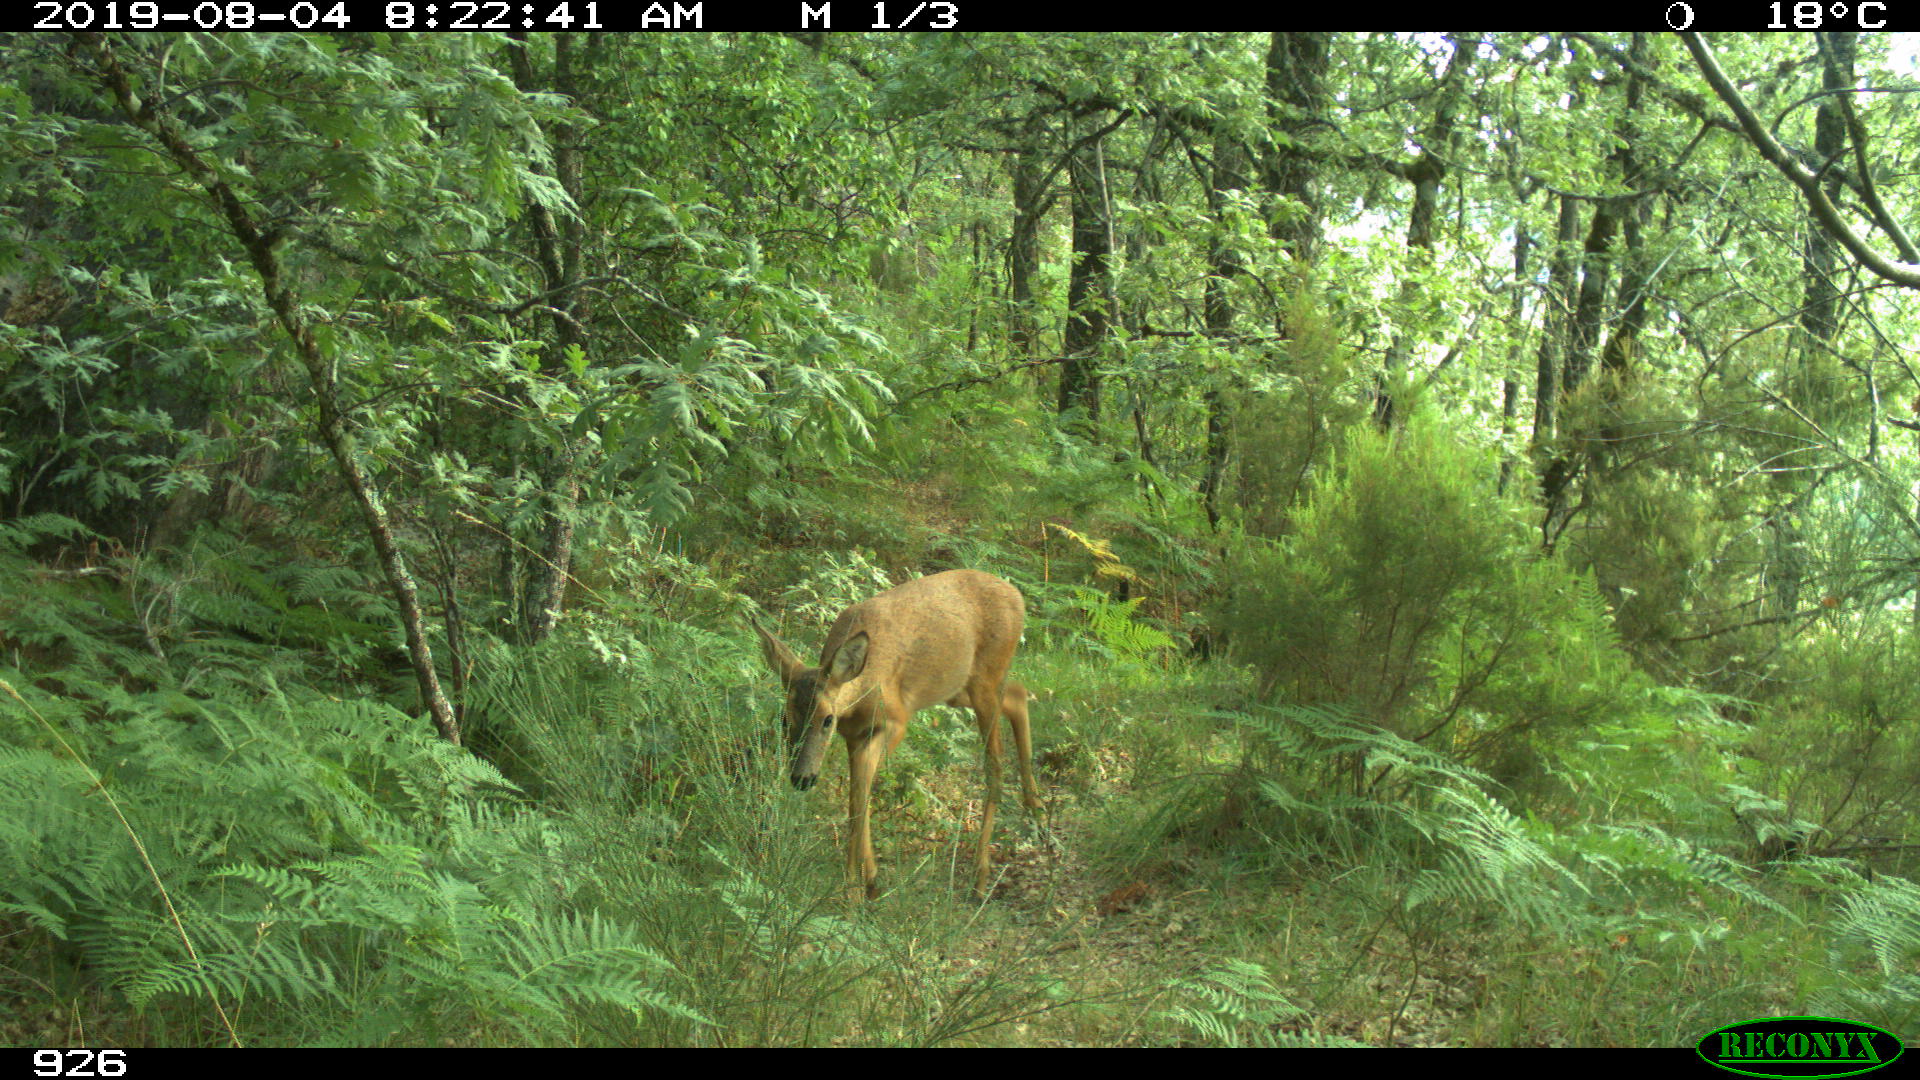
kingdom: Animalia
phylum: Chordata
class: Mammalia
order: Artiodactyla
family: Cervidae
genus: Capreolus
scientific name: Capreolus capreolus
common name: Western roe deer
